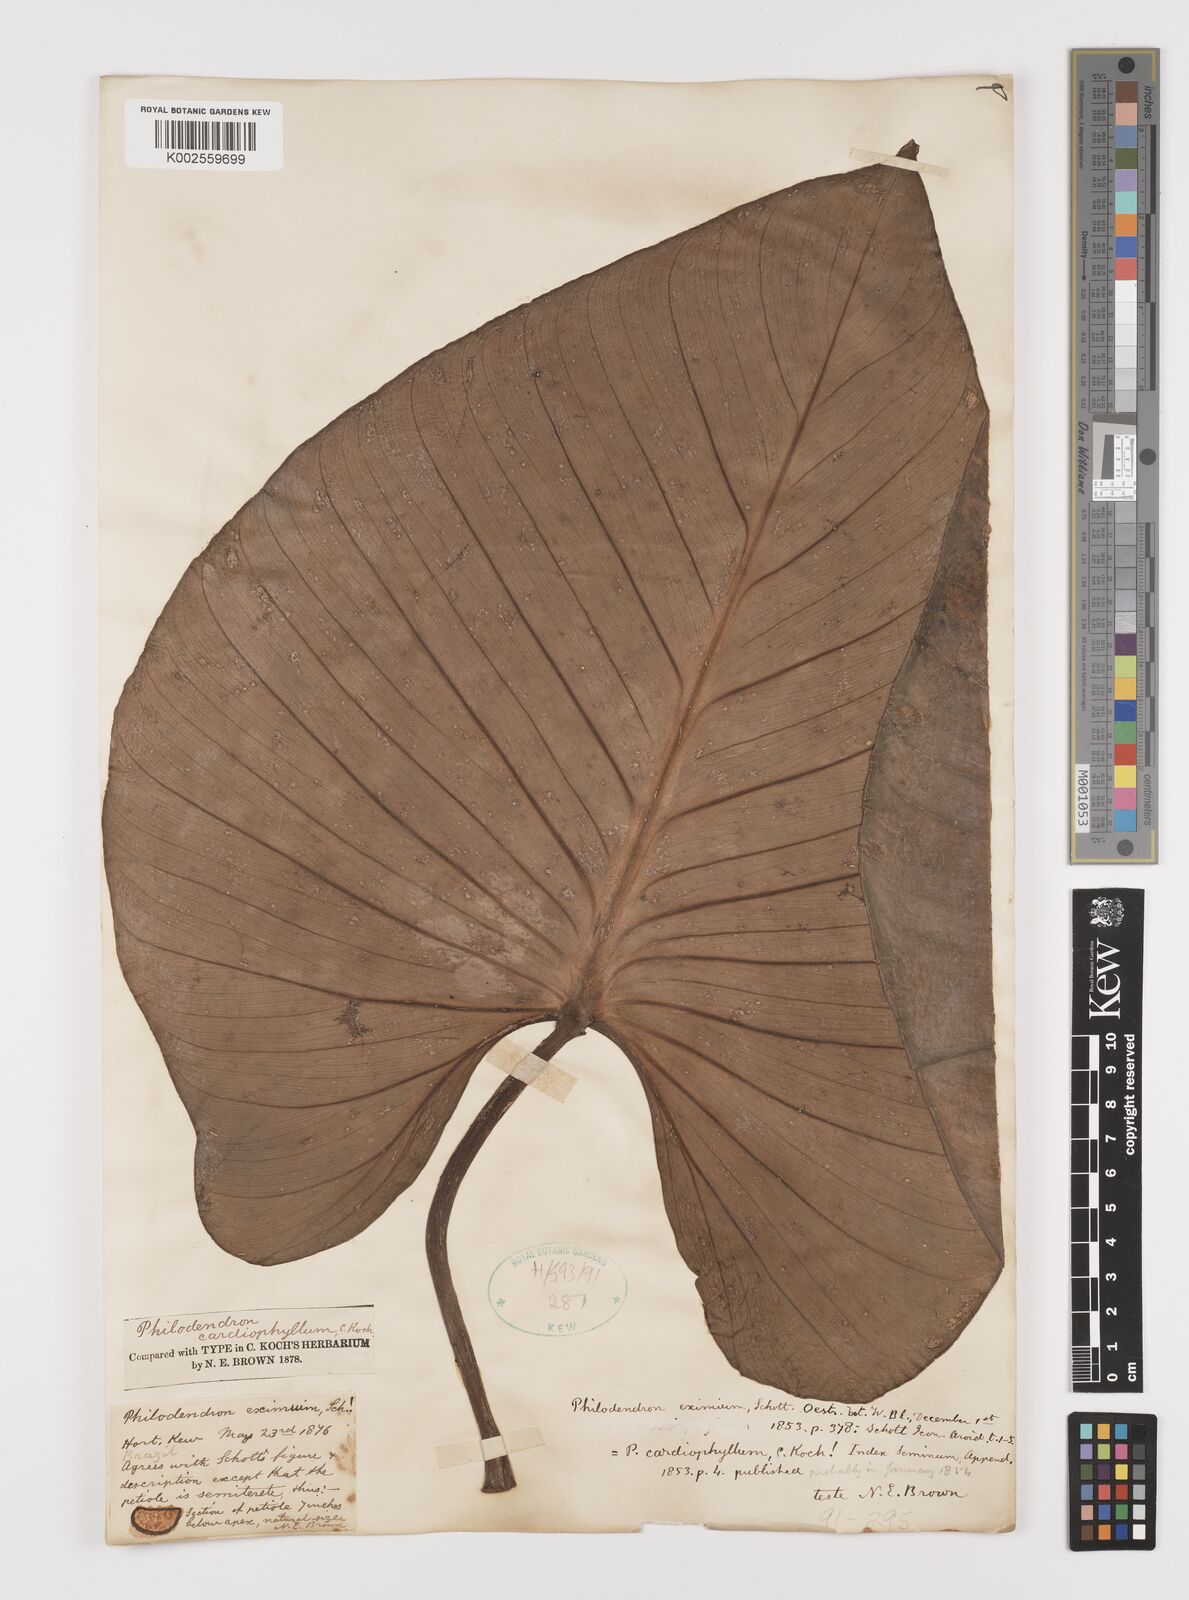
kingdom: Plantae
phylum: Tracheophyta
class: Liliopsida
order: Alismatales
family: Araceae
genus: Philodendron
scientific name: Philodendron eximium
